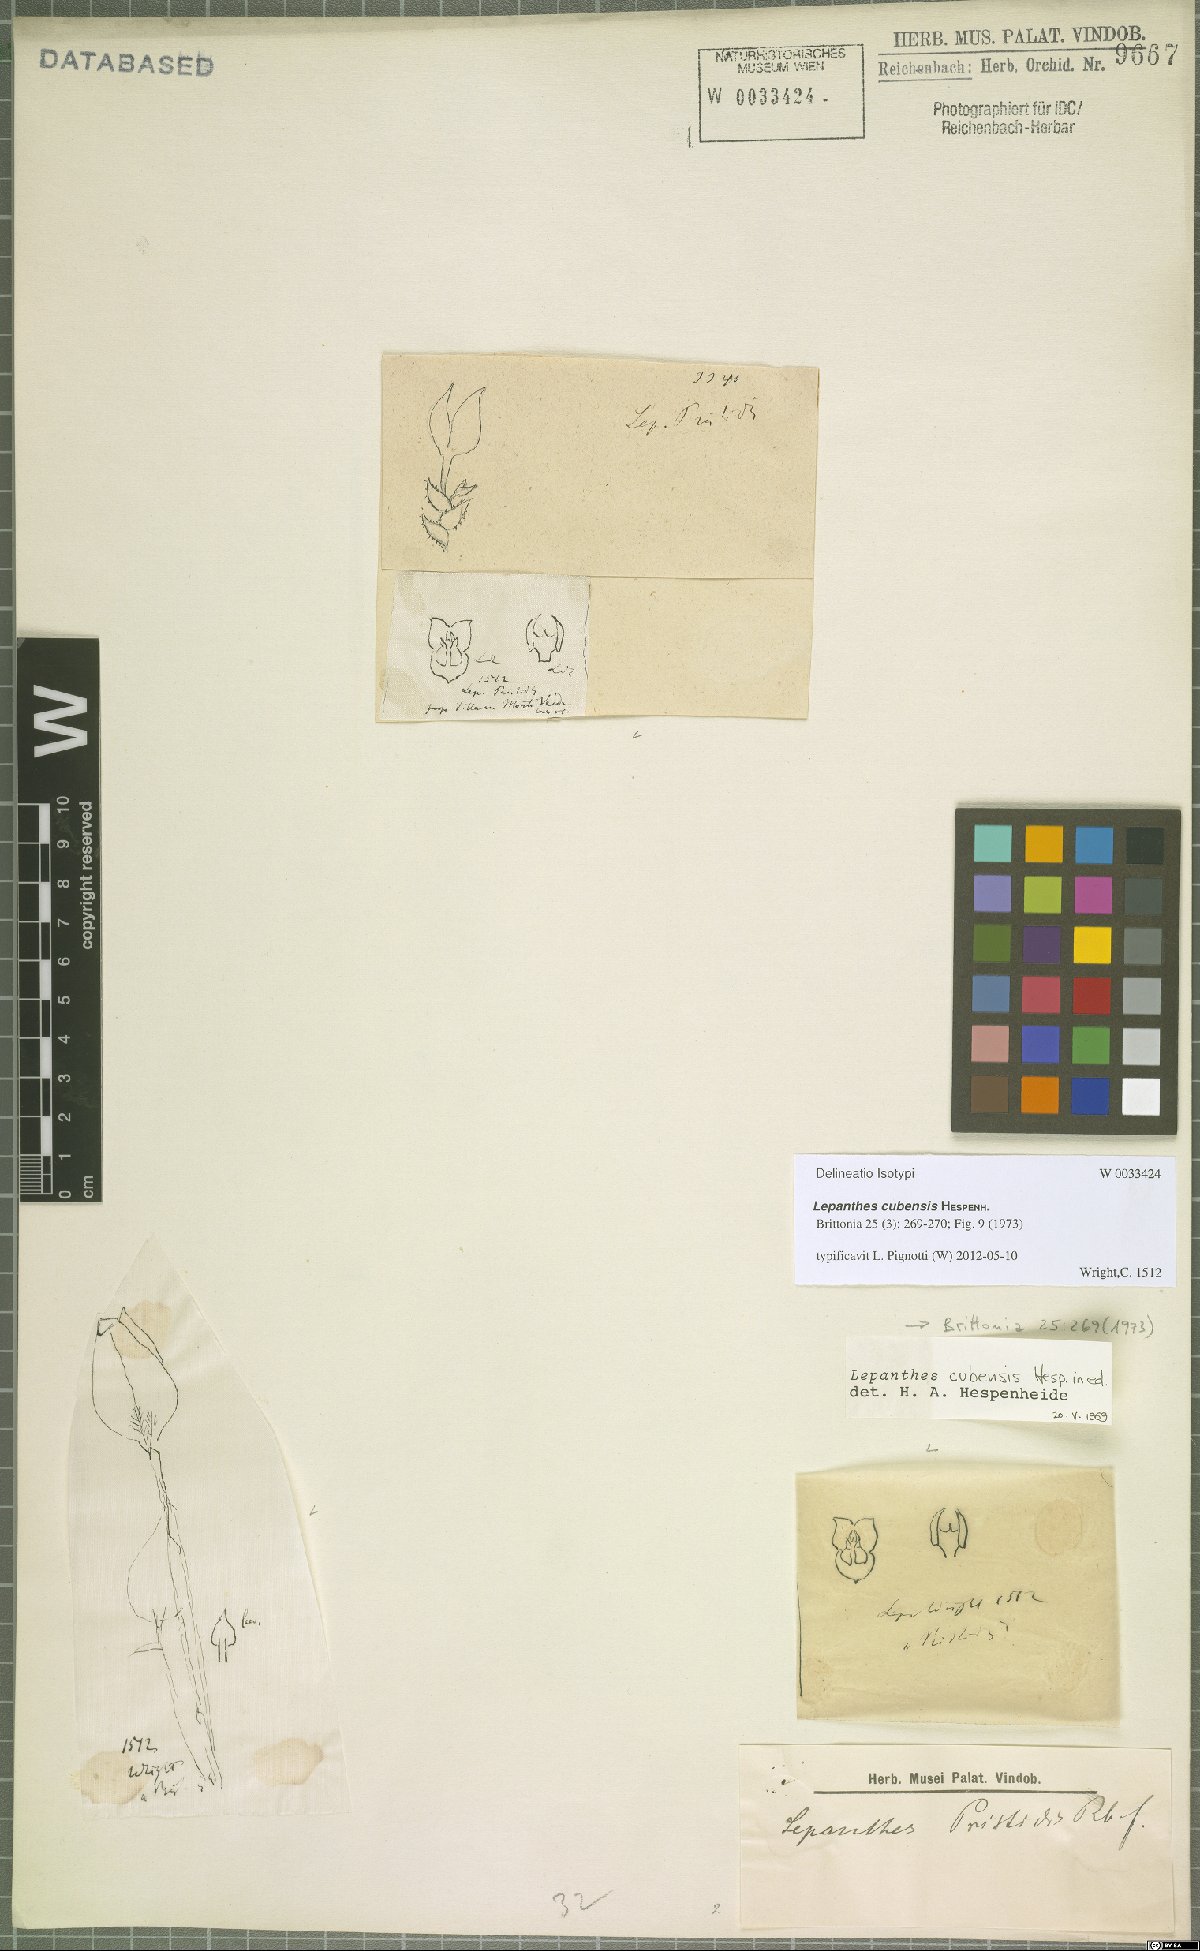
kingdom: Plantae
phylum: Tracheophyta
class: Liliopsida
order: Asparagales
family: Orchidaceae
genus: Lepanthes
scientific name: Lepanthes cubensis
